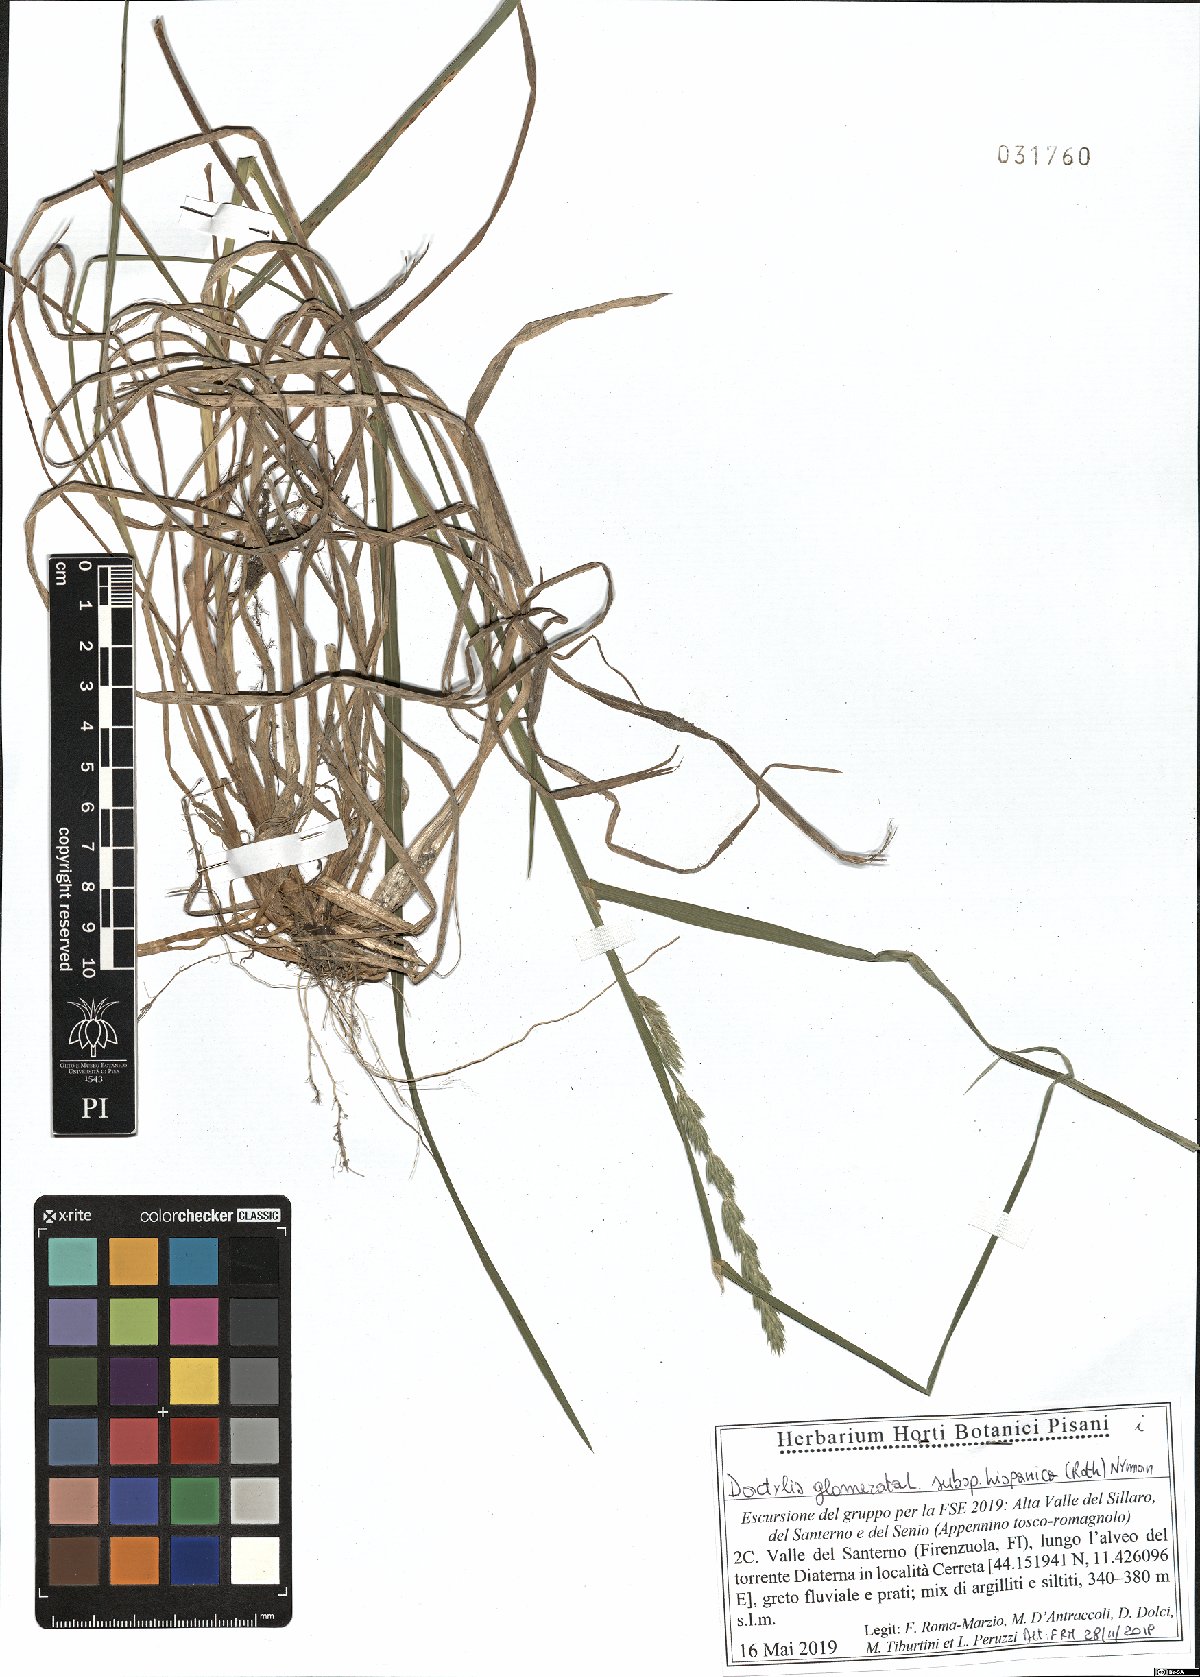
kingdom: Plantae
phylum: Tracheophyta
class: Liliopsida
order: Poales
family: Poaceae
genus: Dactylis
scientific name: Dactylis glomerata
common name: Orchardgrass
